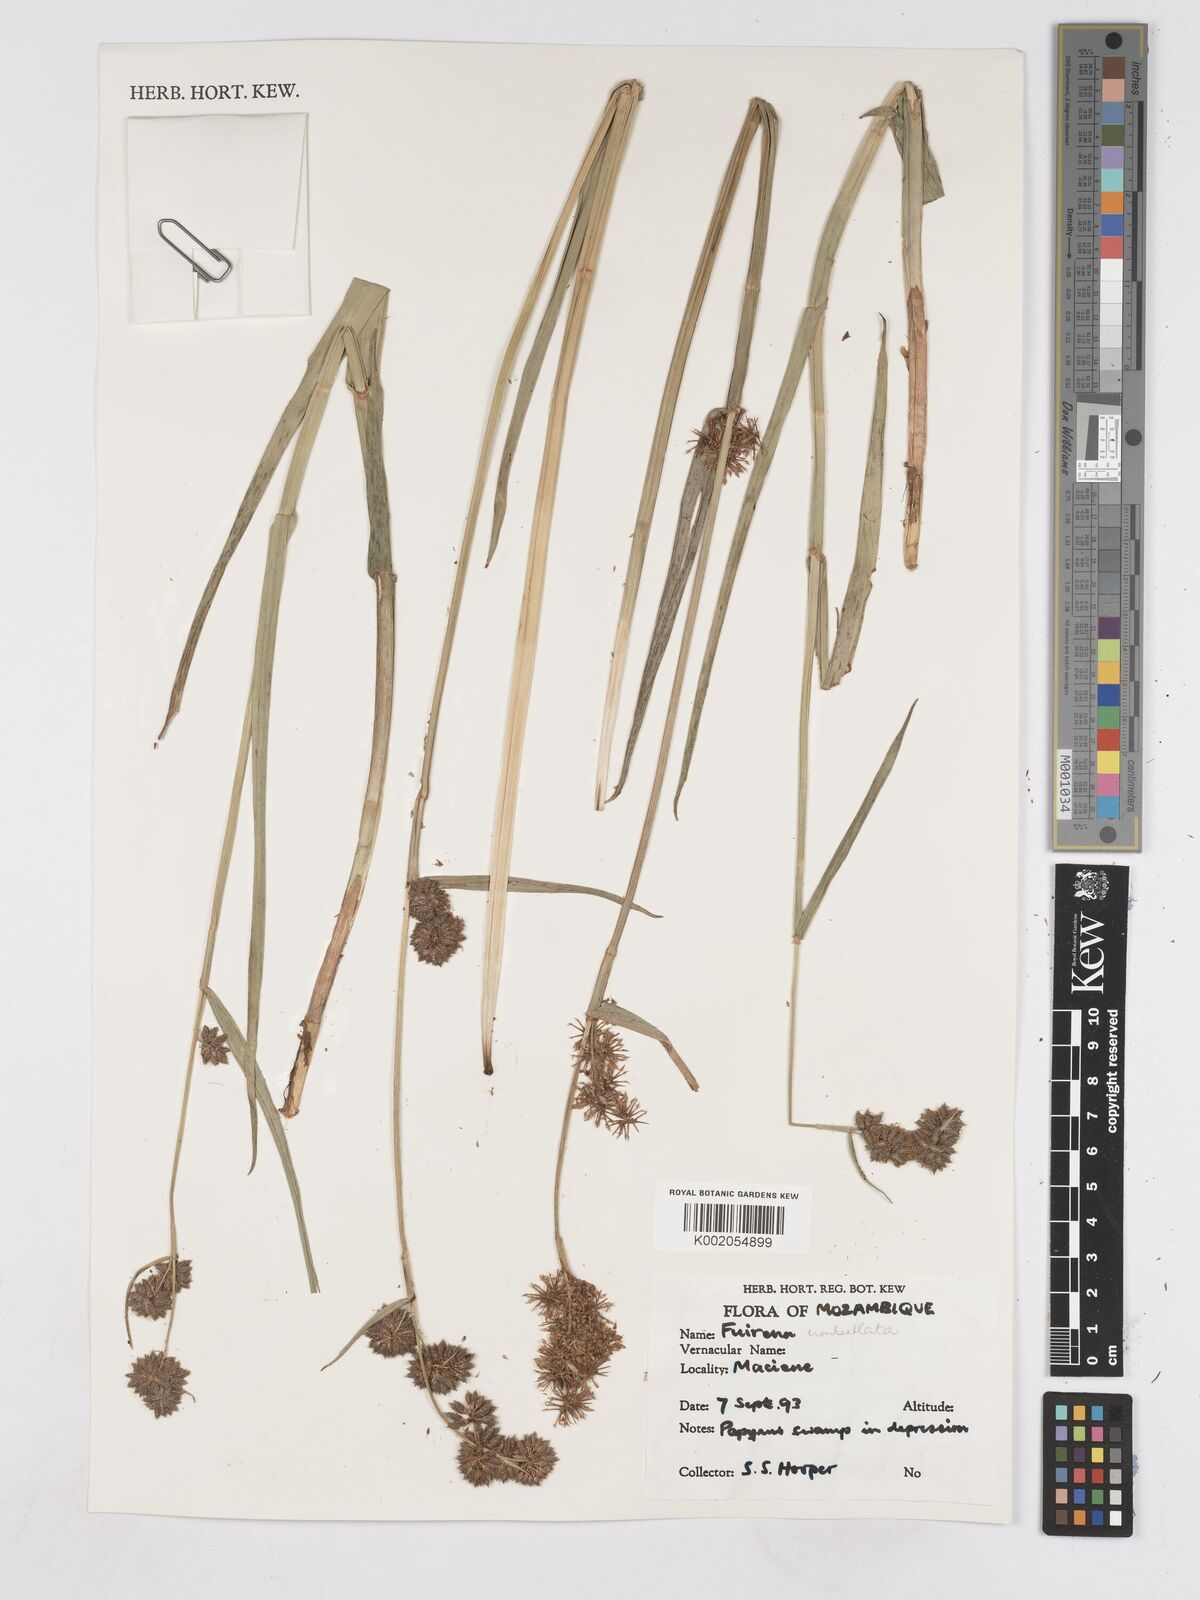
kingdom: Plantae
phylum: Tracheophyta
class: Liliopsida
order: Poales
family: Cyperaceae
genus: Fuirena
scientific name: Fuirena umbellata
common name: Yefen
